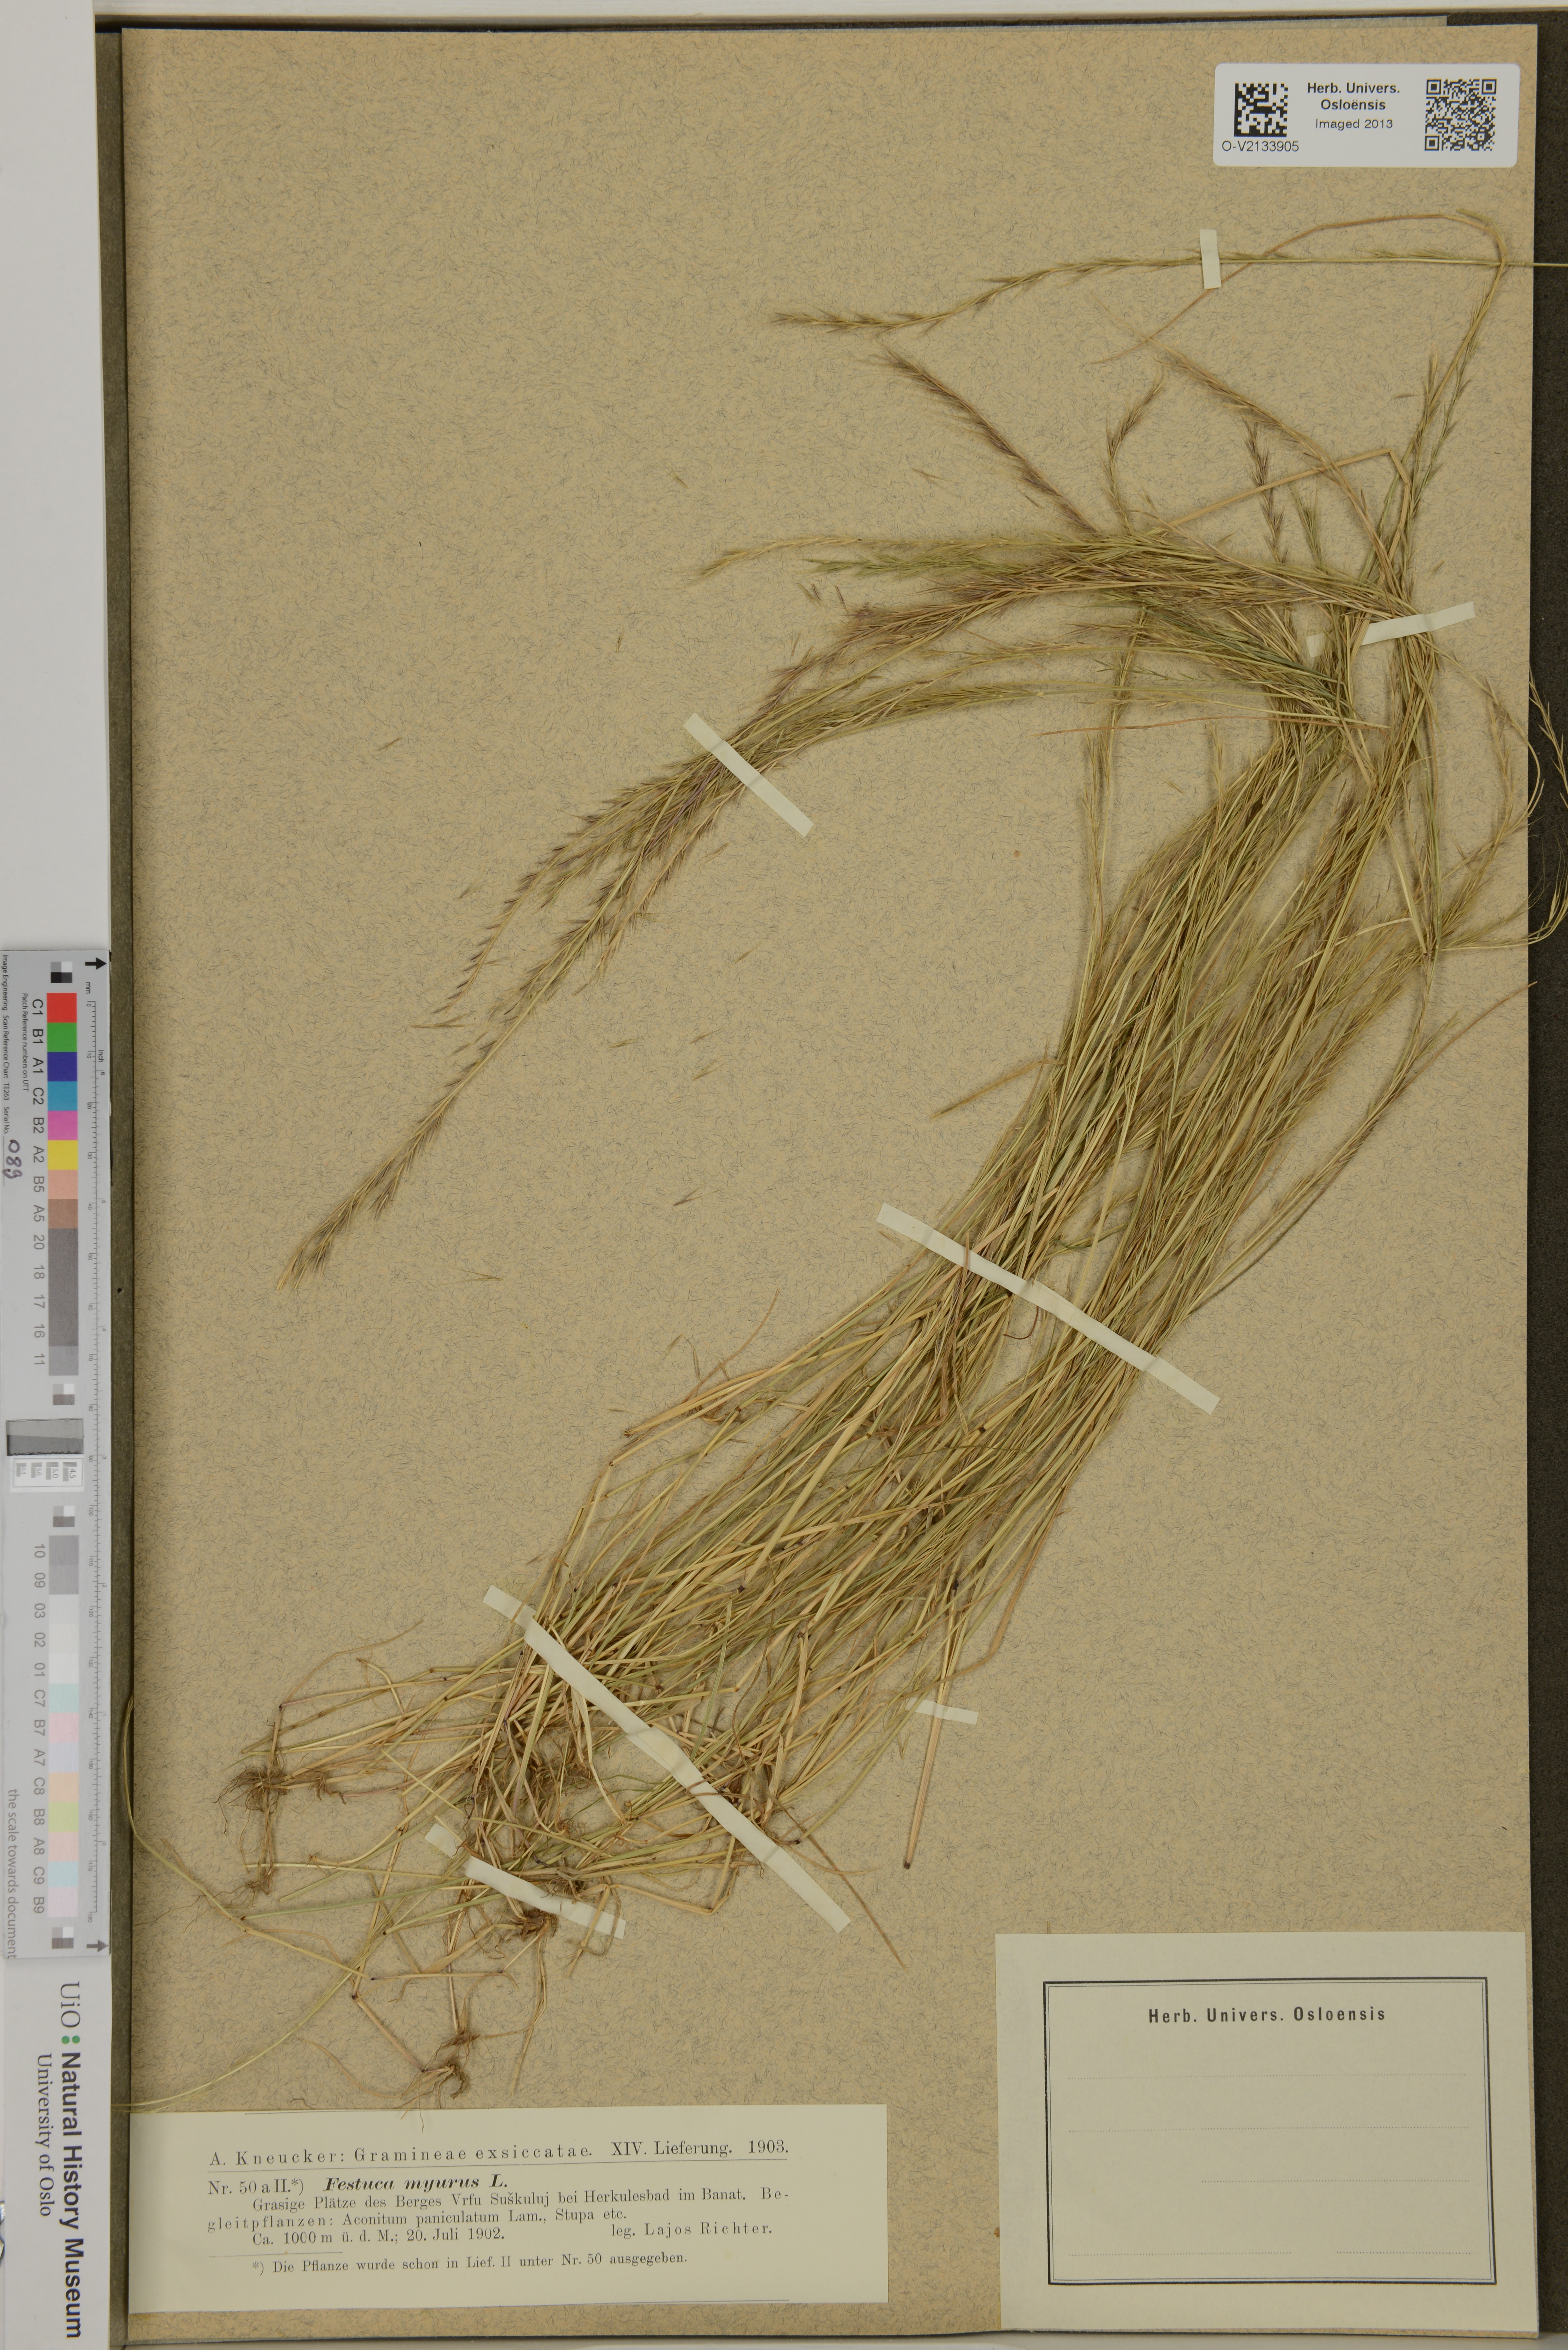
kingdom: Plantae
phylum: Tracheophyta
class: Liliopsida
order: Poales
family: Poaceae
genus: Festuca
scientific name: Festuca myuros
